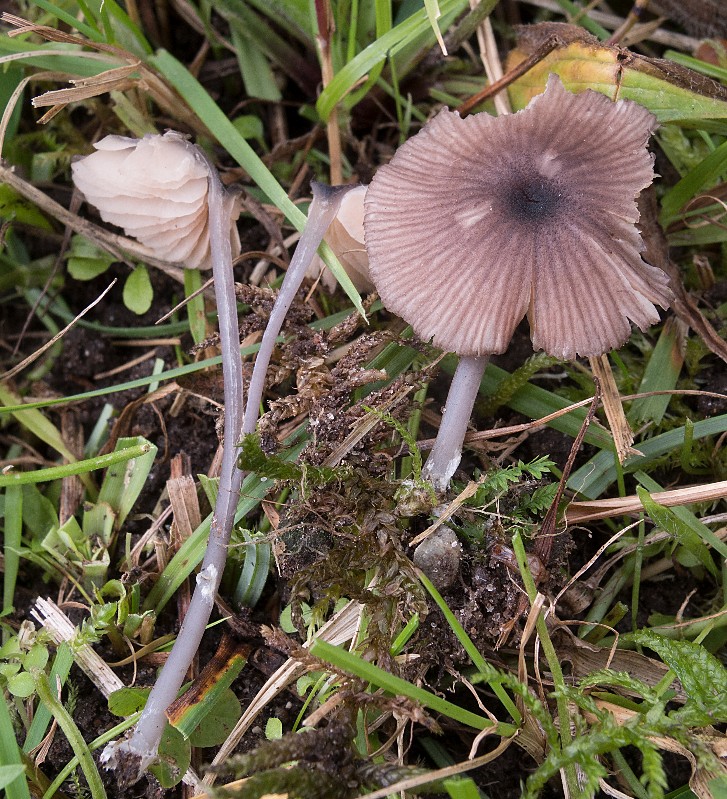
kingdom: Fungi
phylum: Basidiomycota
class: Agaricomycetes
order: Agaricales
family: Entolomataceae
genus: Entoloma
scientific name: Entoloma brunneoserrulatum
